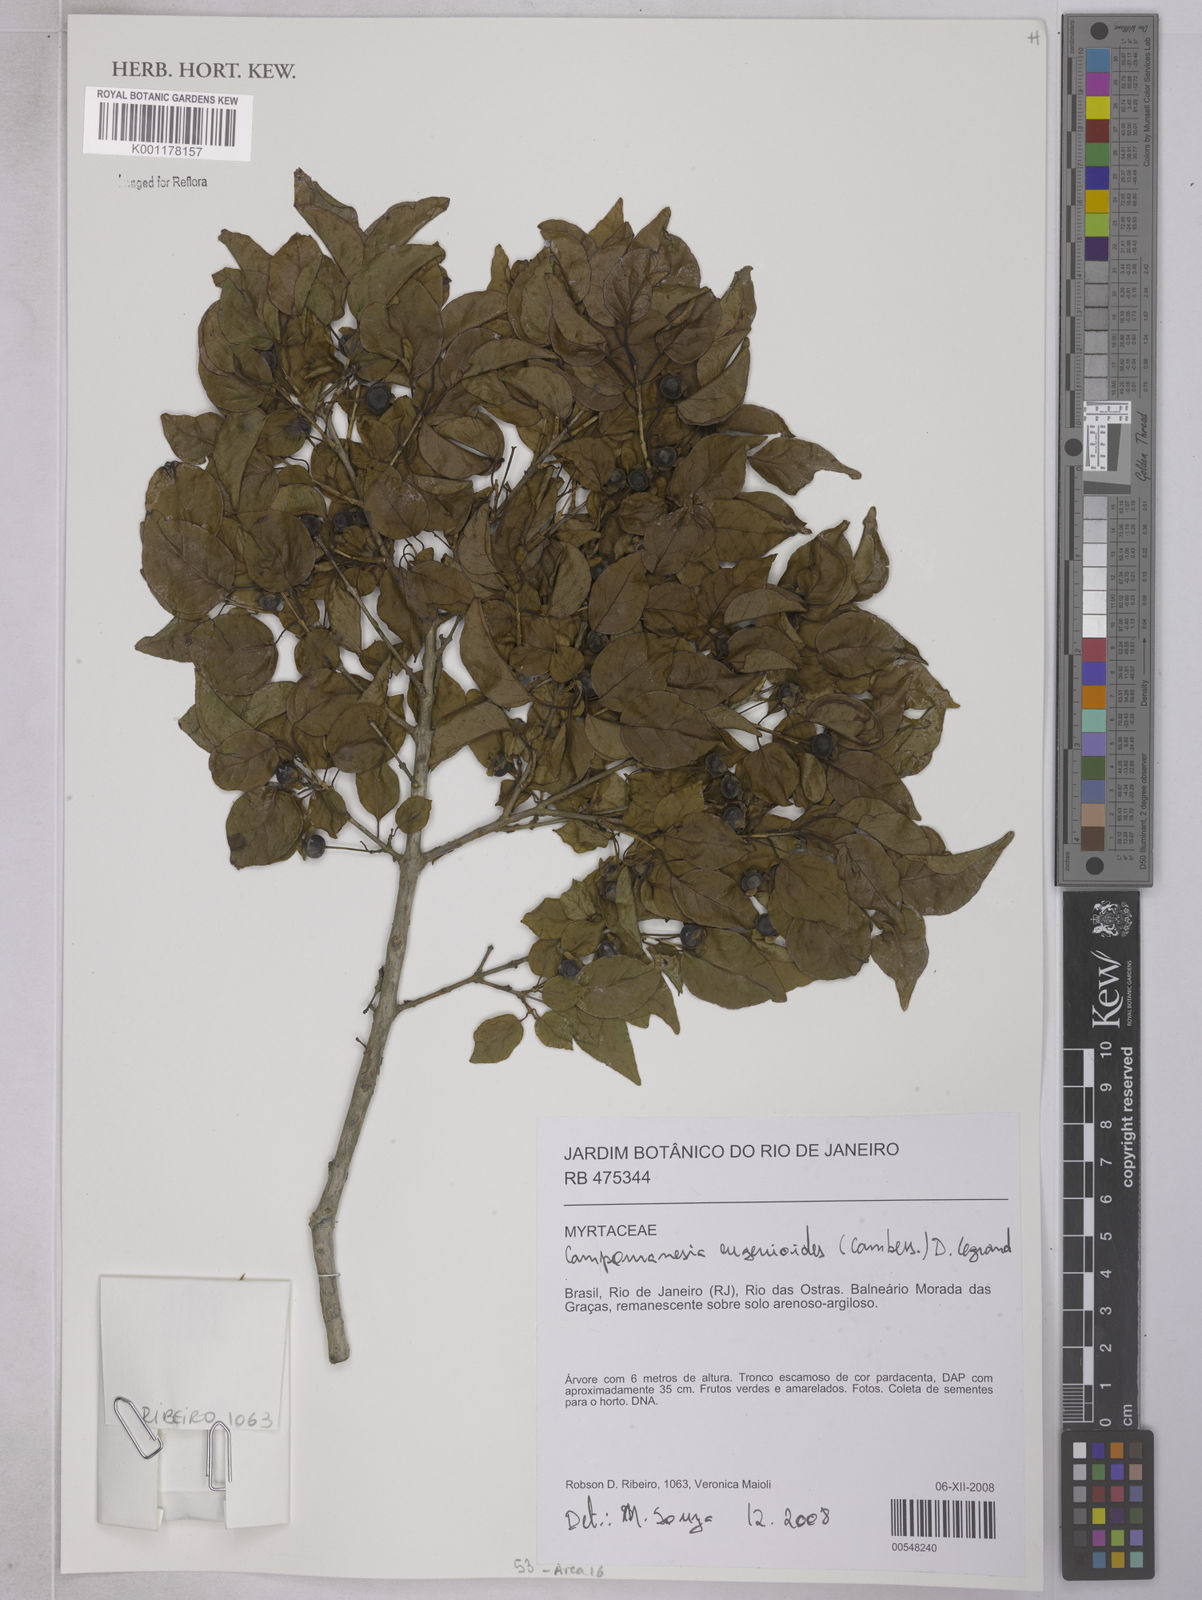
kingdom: Plantae
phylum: Tracheophyta
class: Magnoliopsida
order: Myrtales
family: Myrtaceae
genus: Campomanesia
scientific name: Campomanesia
